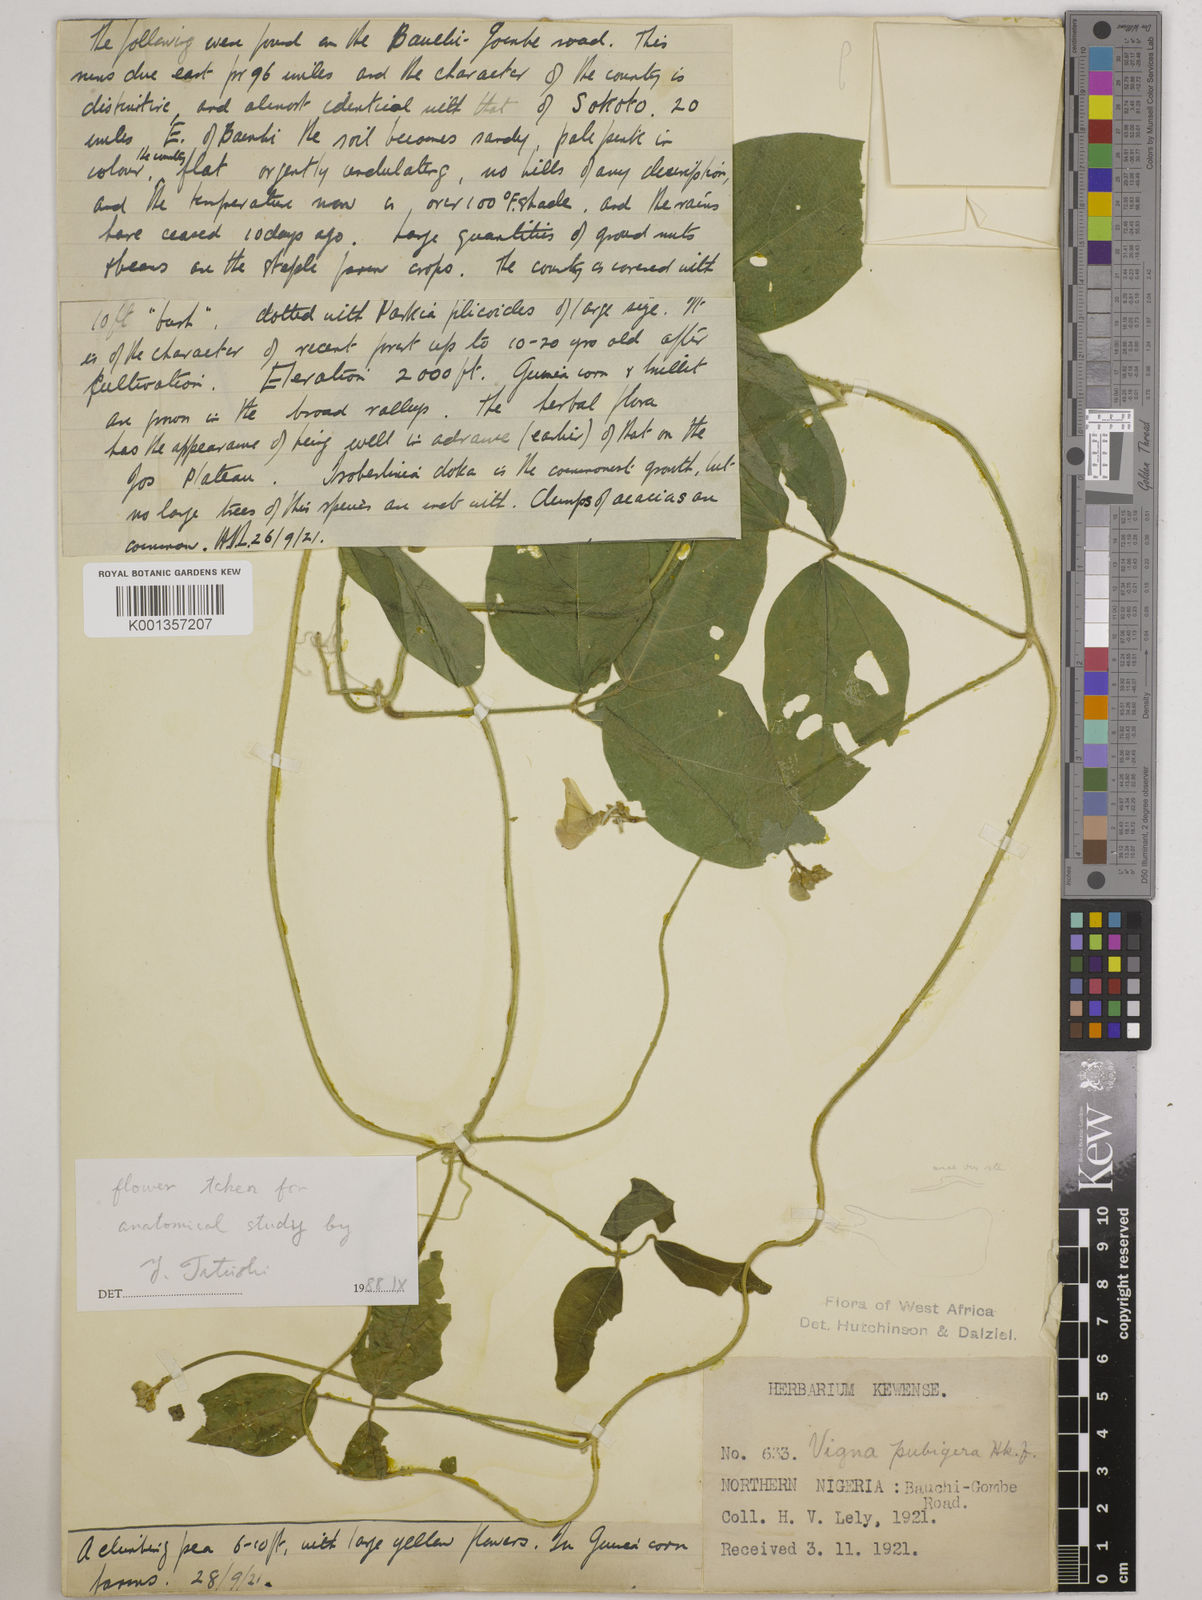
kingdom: Plantae
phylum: Tracheophyta
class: Magnoliopsida
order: Fabales
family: Fabaceae
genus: Vigna
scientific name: Vigna ambacensis
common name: Tsarkiyan zomo
